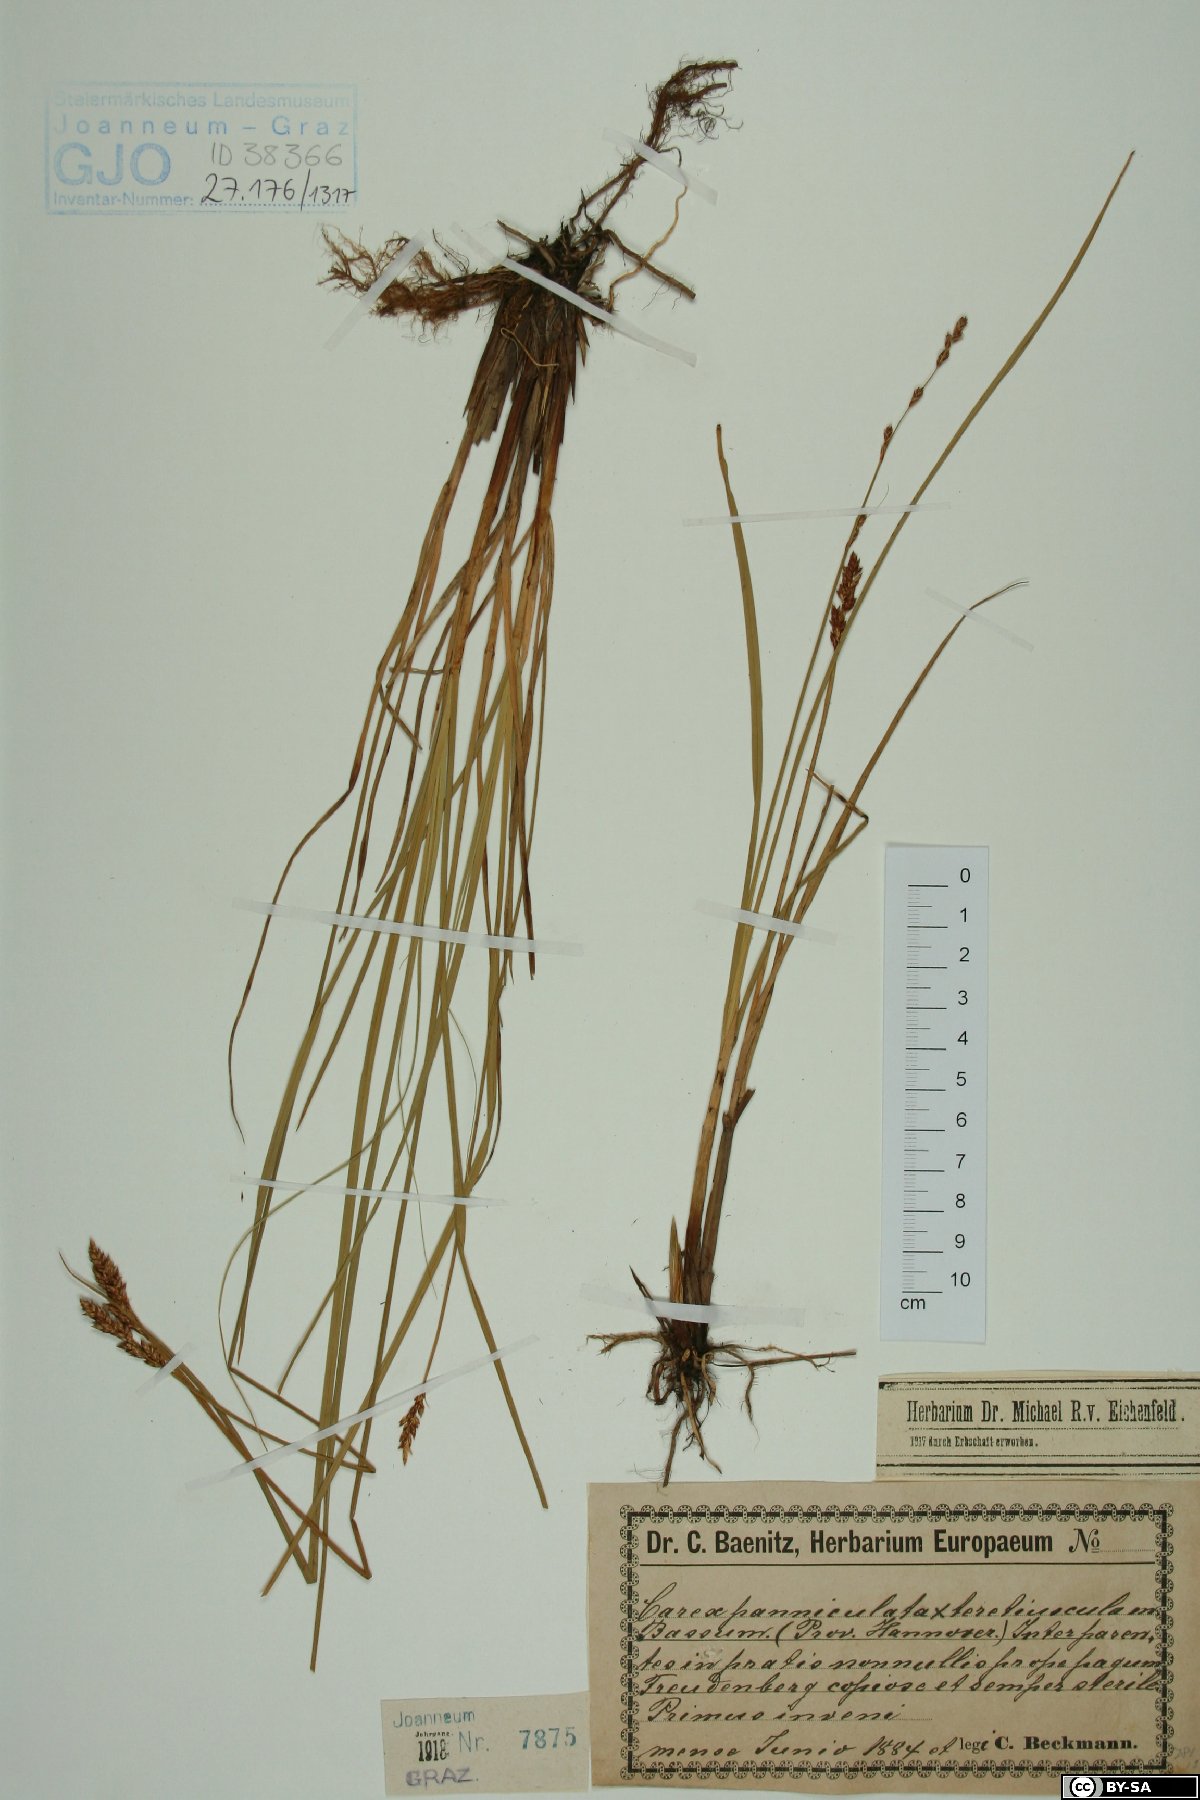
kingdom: Plantae
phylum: Tracheophyta
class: Liliopsida
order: Poales
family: Cyperaceae
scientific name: Cyperaceae
